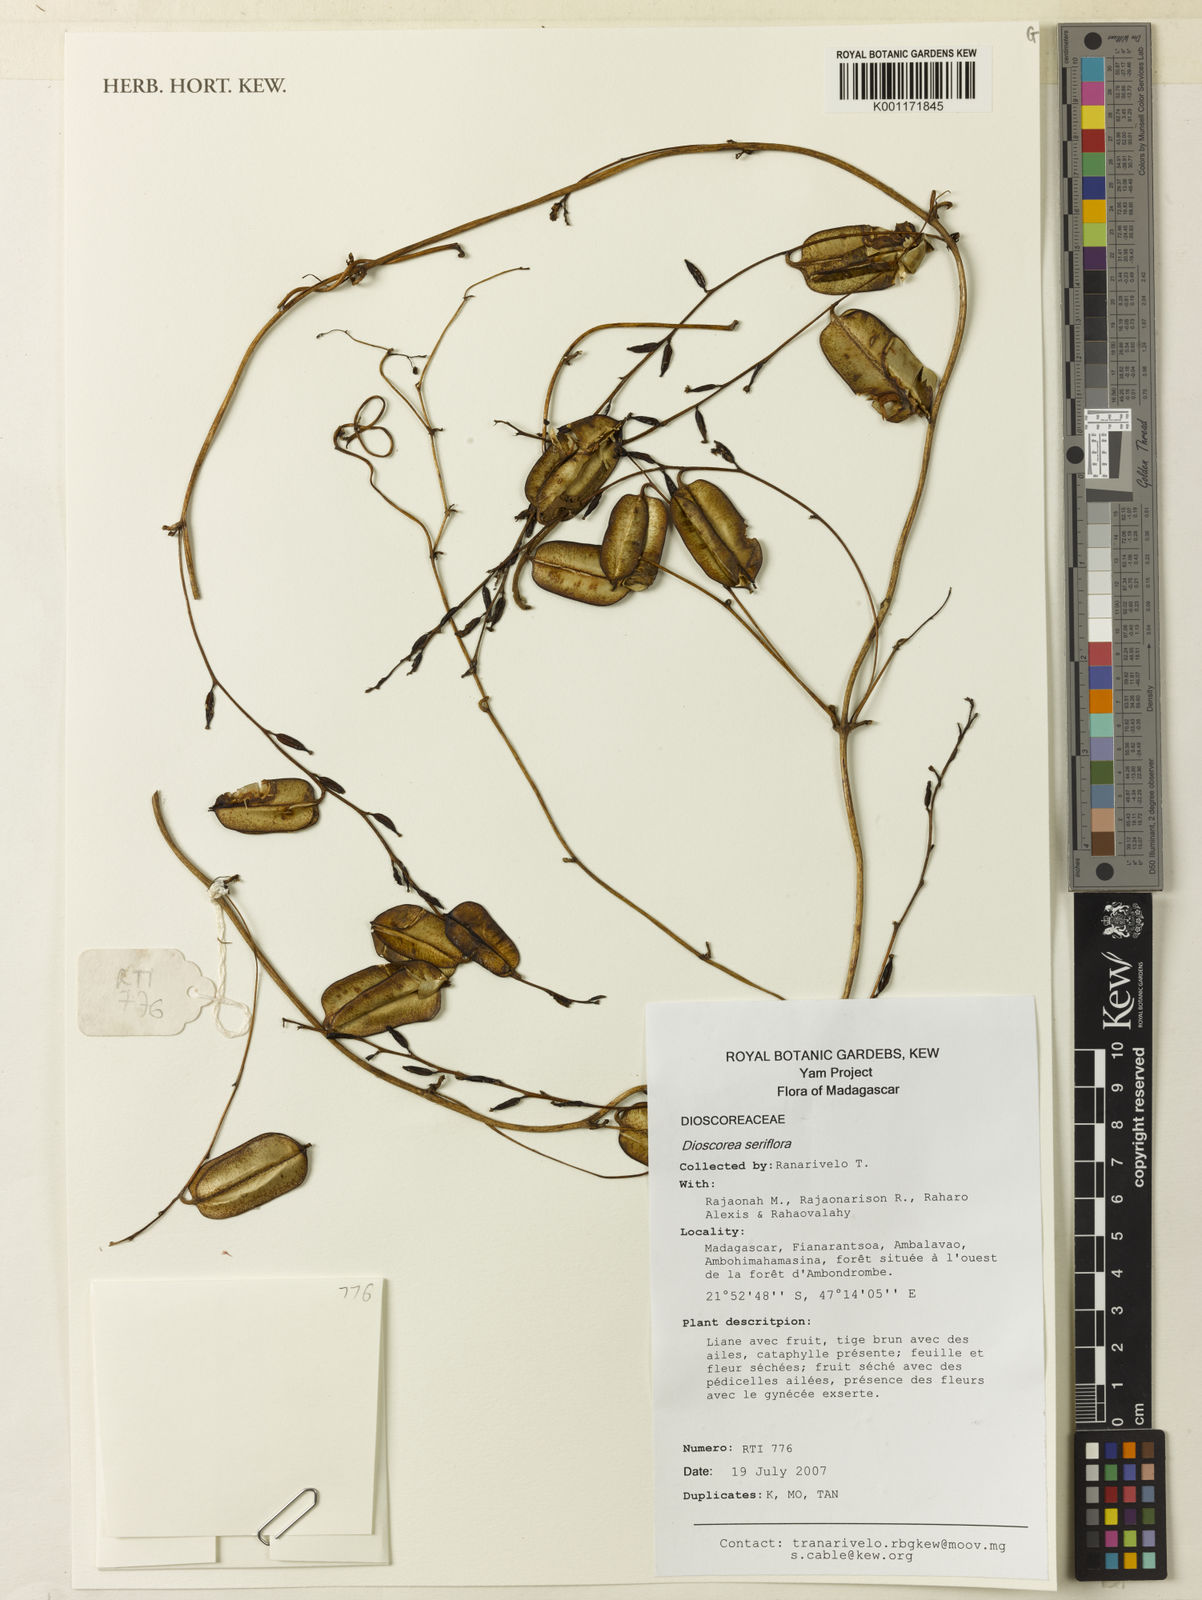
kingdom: Plantae
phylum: Tracheophyta
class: Liliopsida
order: Dioscoreales
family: Dioscoreaceae
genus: Dioscorea
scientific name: Dioscorea seriflora
